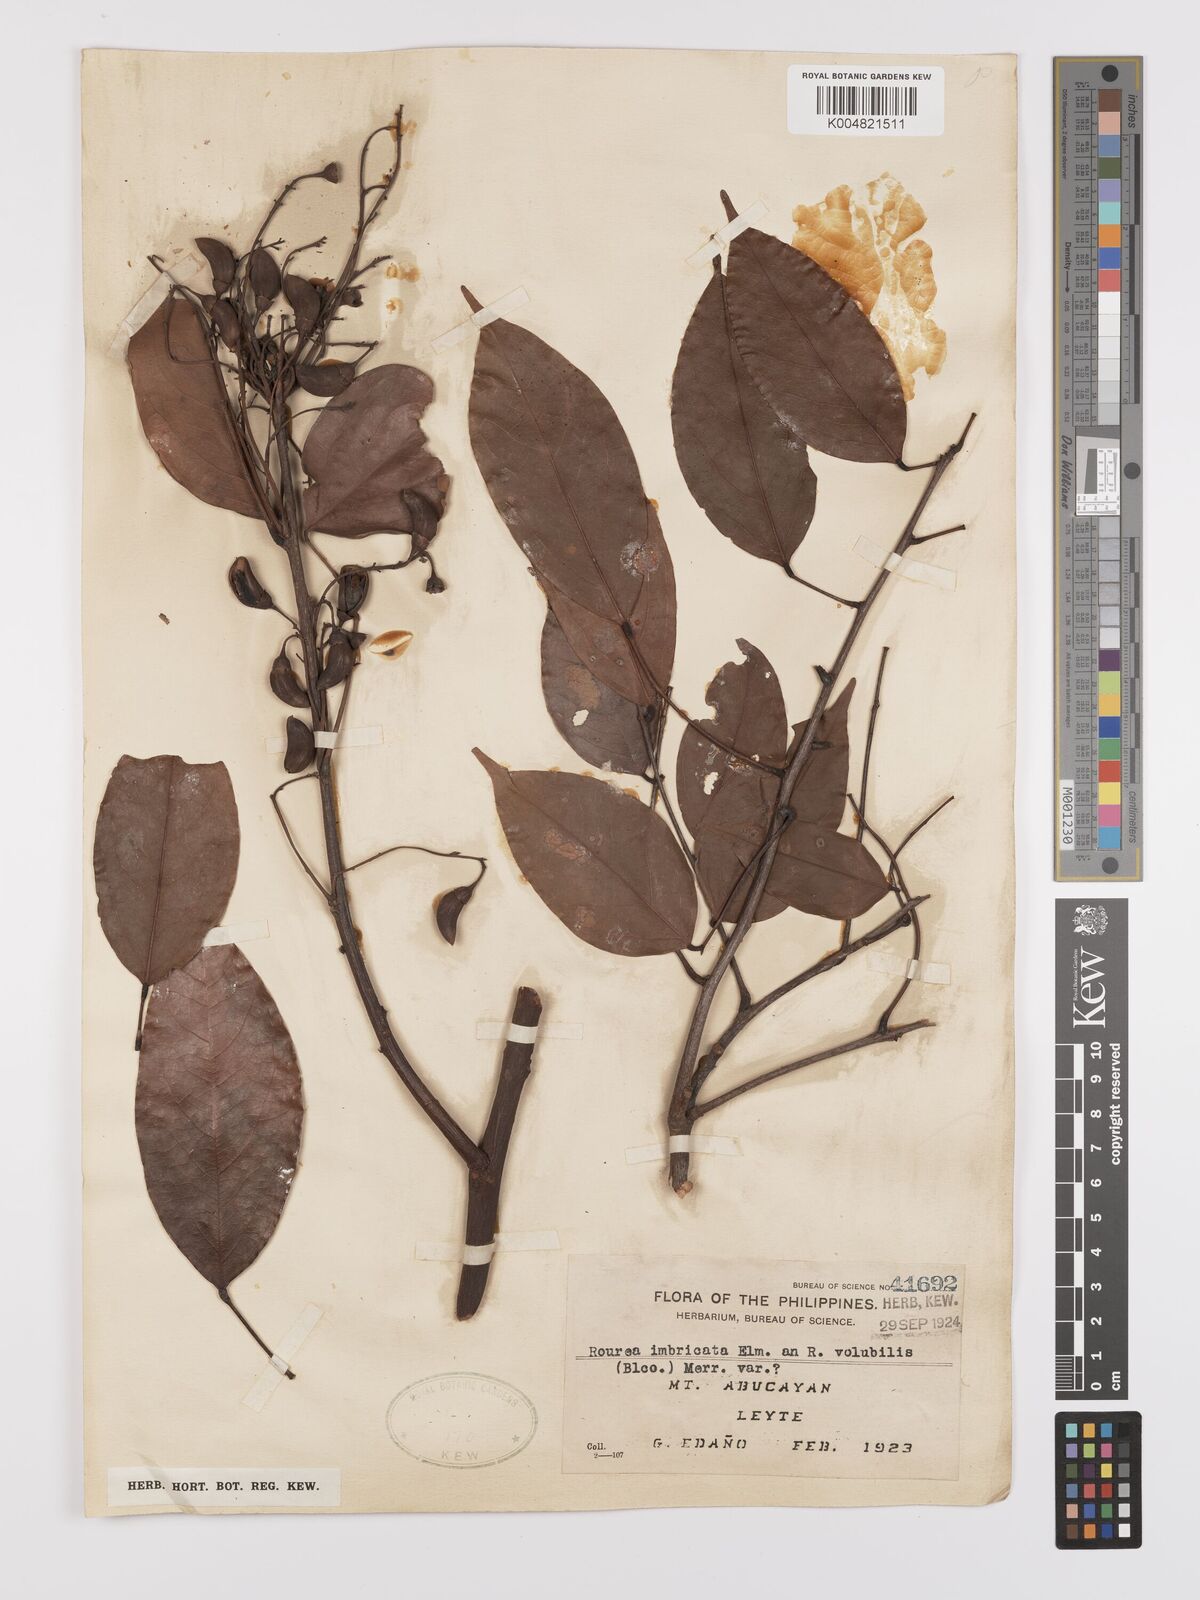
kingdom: Plantae
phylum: Tracheophyta
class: Magnoliopsida
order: Oxalidales
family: Connaraceae
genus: Rourea
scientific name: Rourea minor
